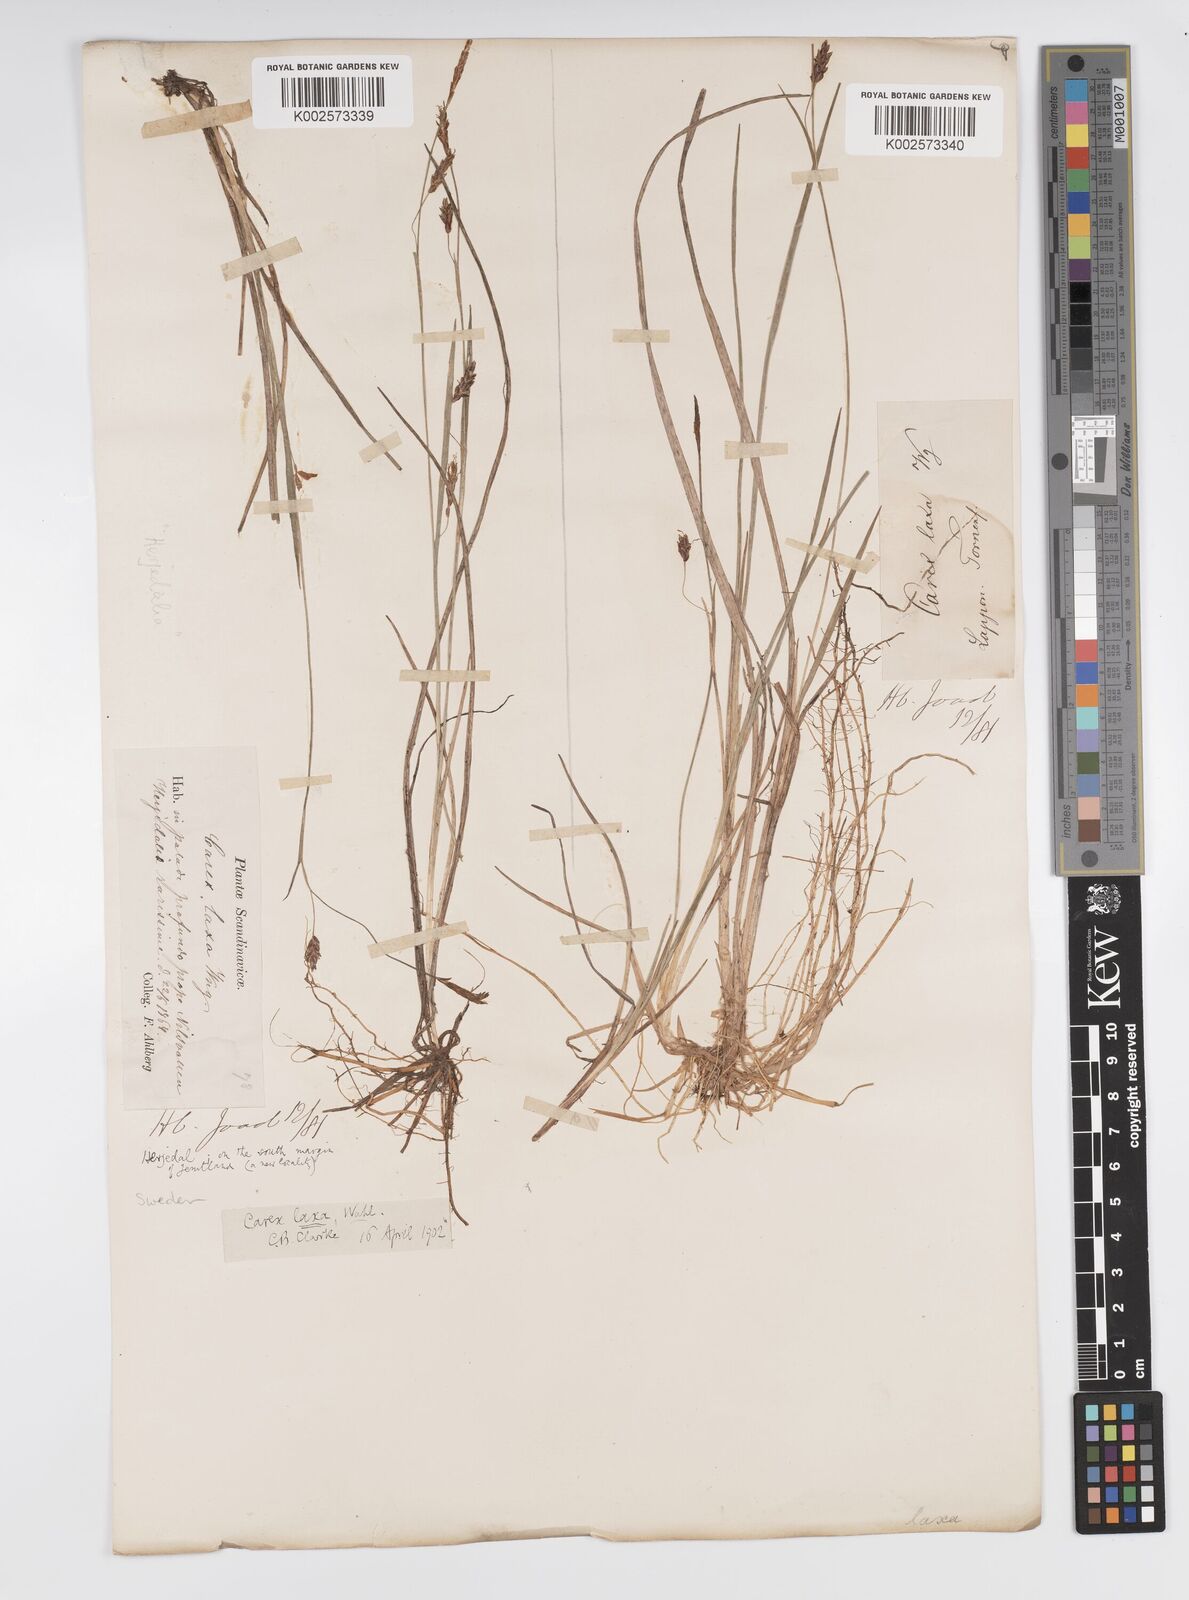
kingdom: Plantae
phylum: Tracheophyta
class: Liliopsida
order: Poales
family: Cyperaceae
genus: Carex
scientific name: Carex laxa
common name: Weak sedge
